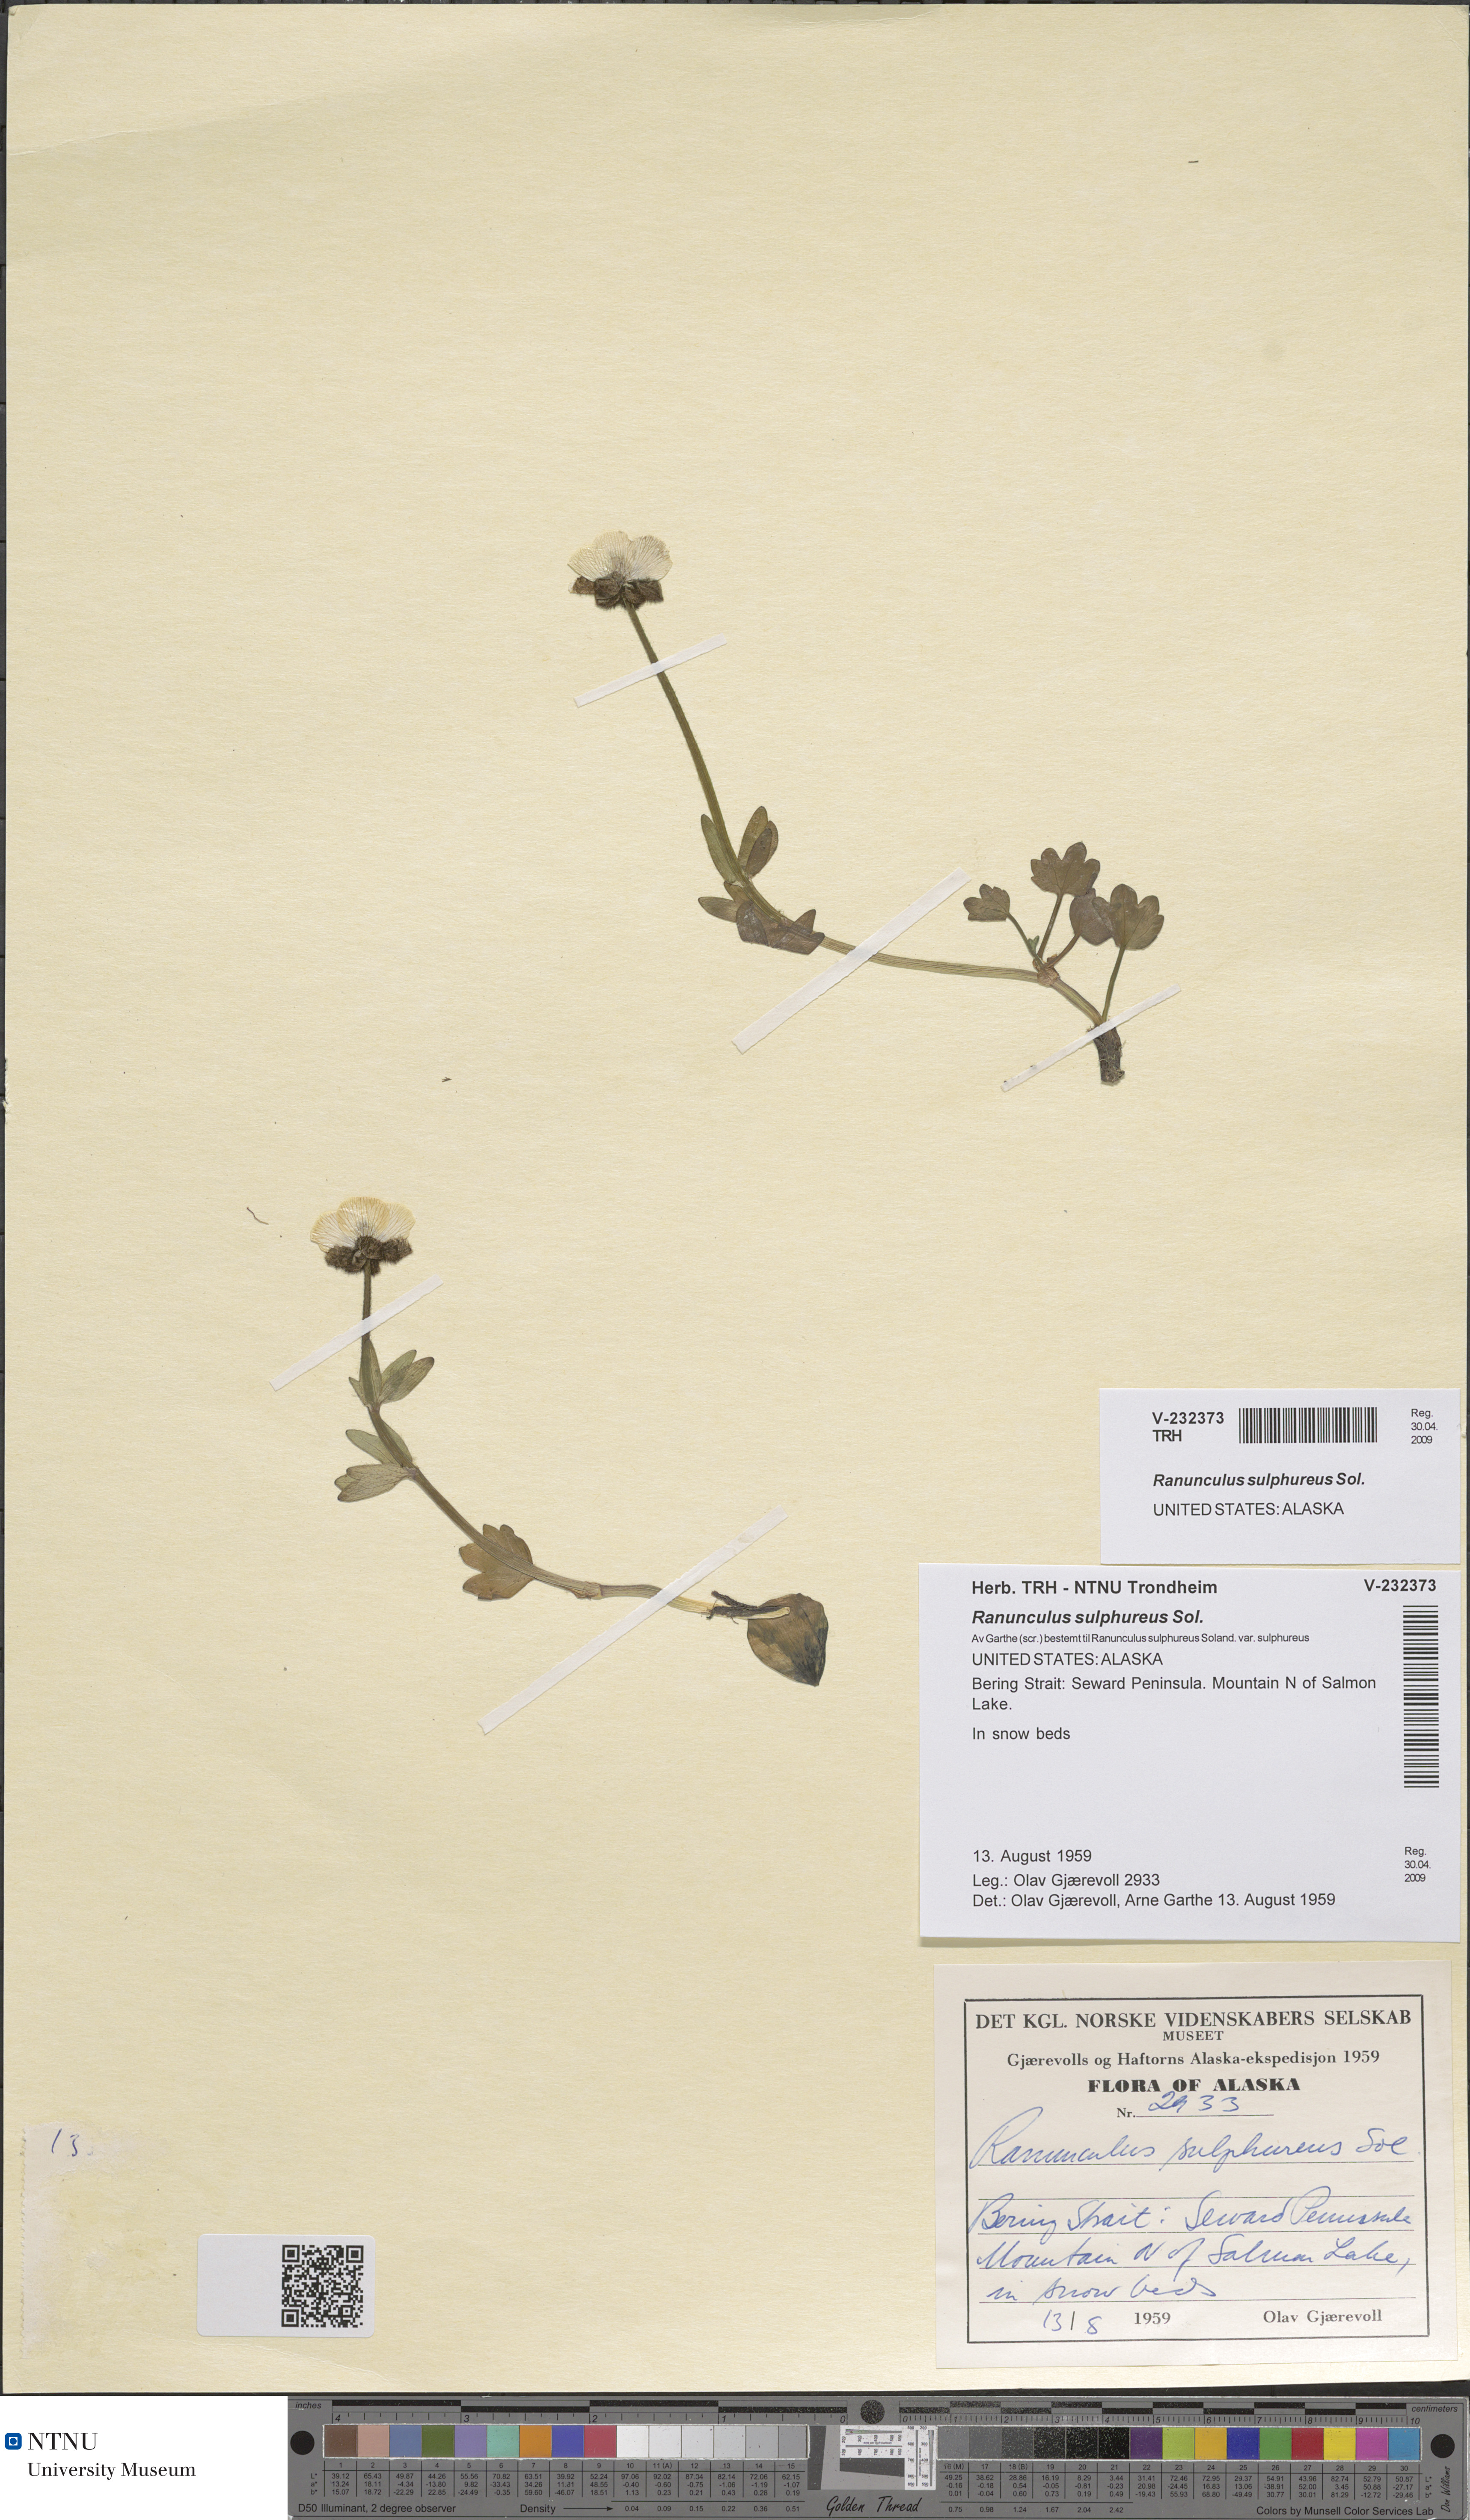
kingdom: Plantae
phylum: Tracheophyta
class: Magnoliopsida
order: Ranunculales
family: Ranunculaceae
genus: Ranunculus
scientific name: Ranunculus sulphureus
